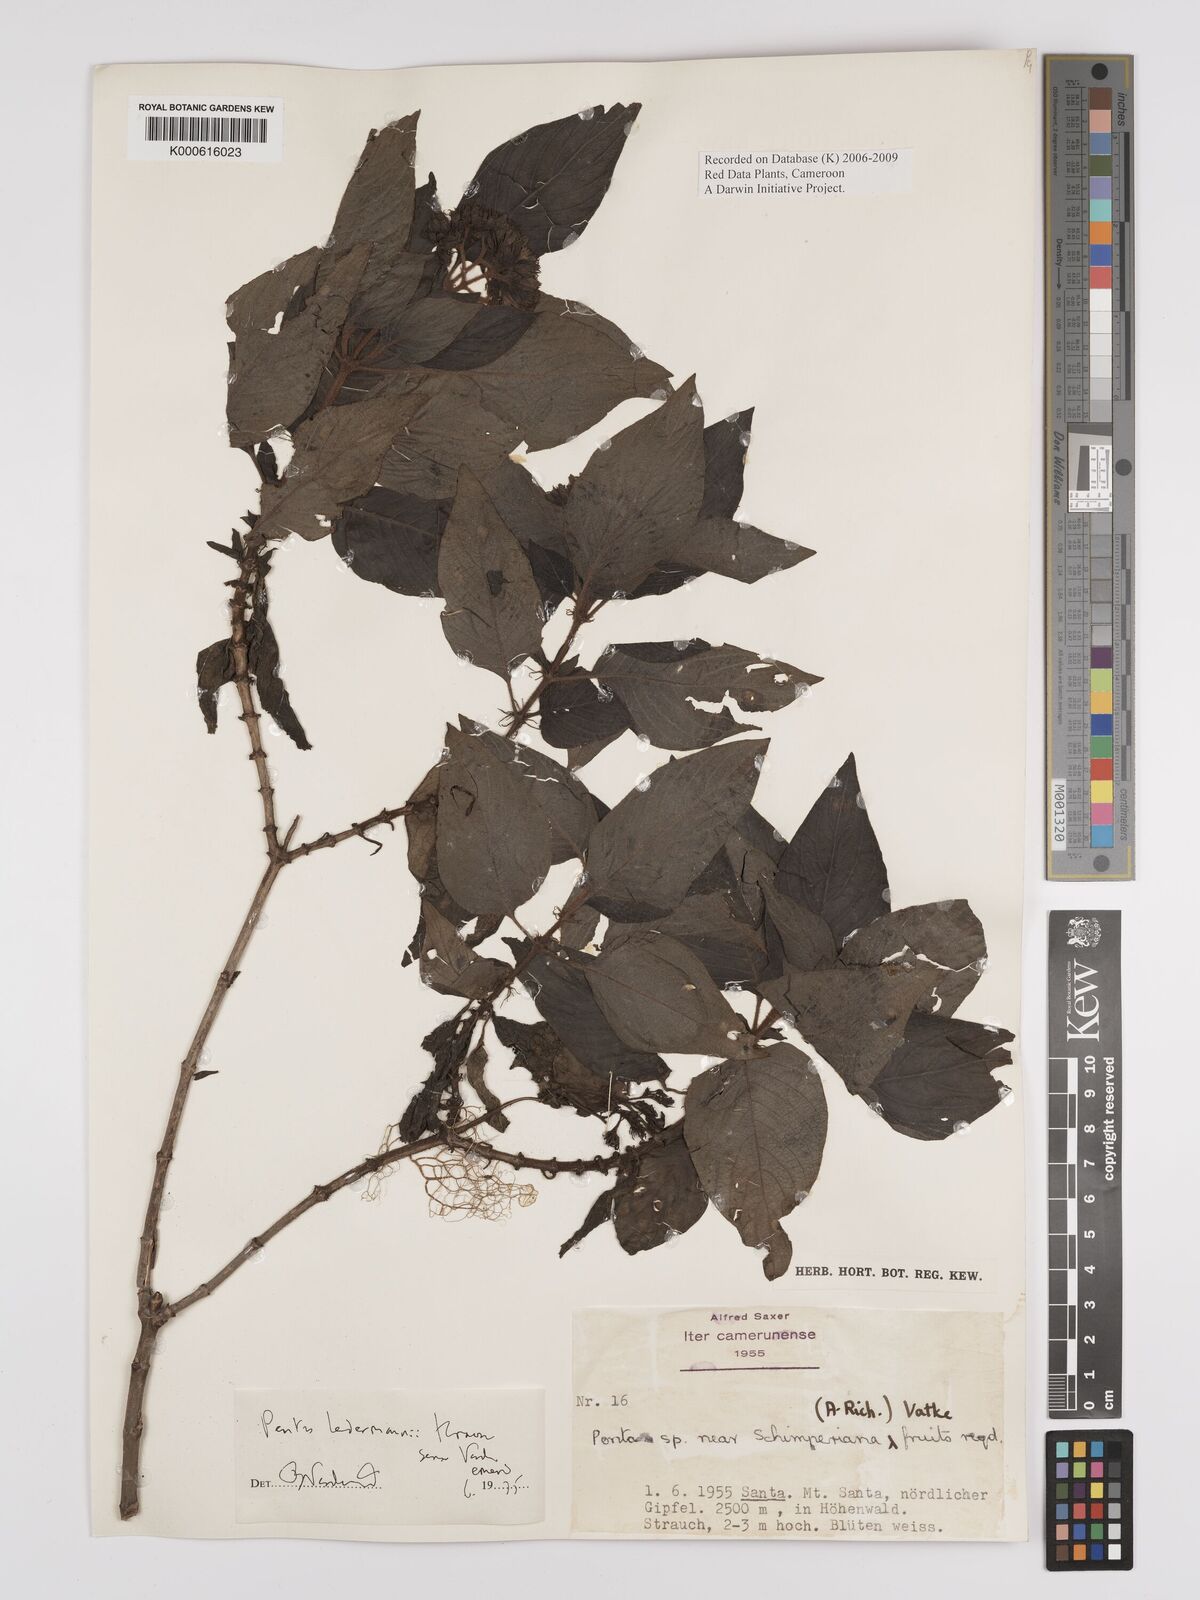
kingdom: Plantae
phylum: Tracheophyta
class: Magnoliopsida
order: Gentianales
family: Rubiaceae
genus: Phyllopentas
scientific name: Phyllopentas ledermannii
